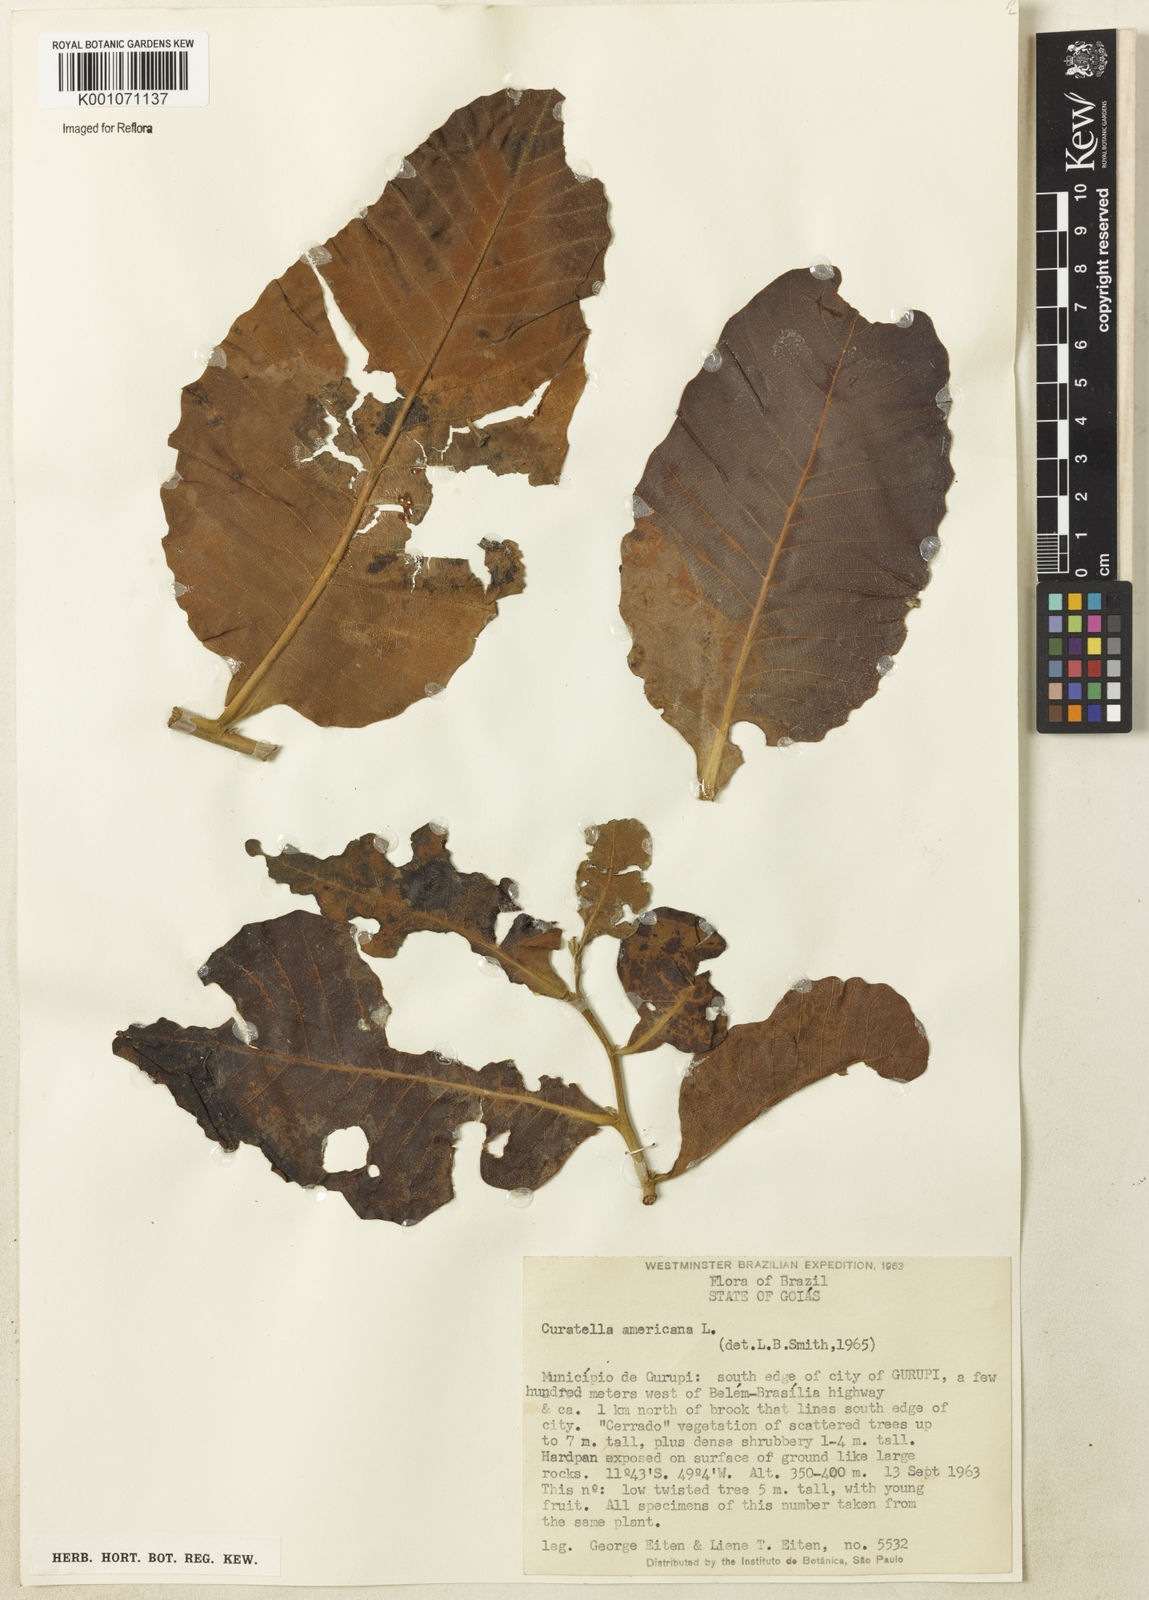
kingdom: Plantae
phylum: Tracheophyta
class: Magnoliopsida
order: Dilleniales
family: Dilleniaceae
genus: Curatella
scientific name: Curatella americana
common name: Sandpaper tree
